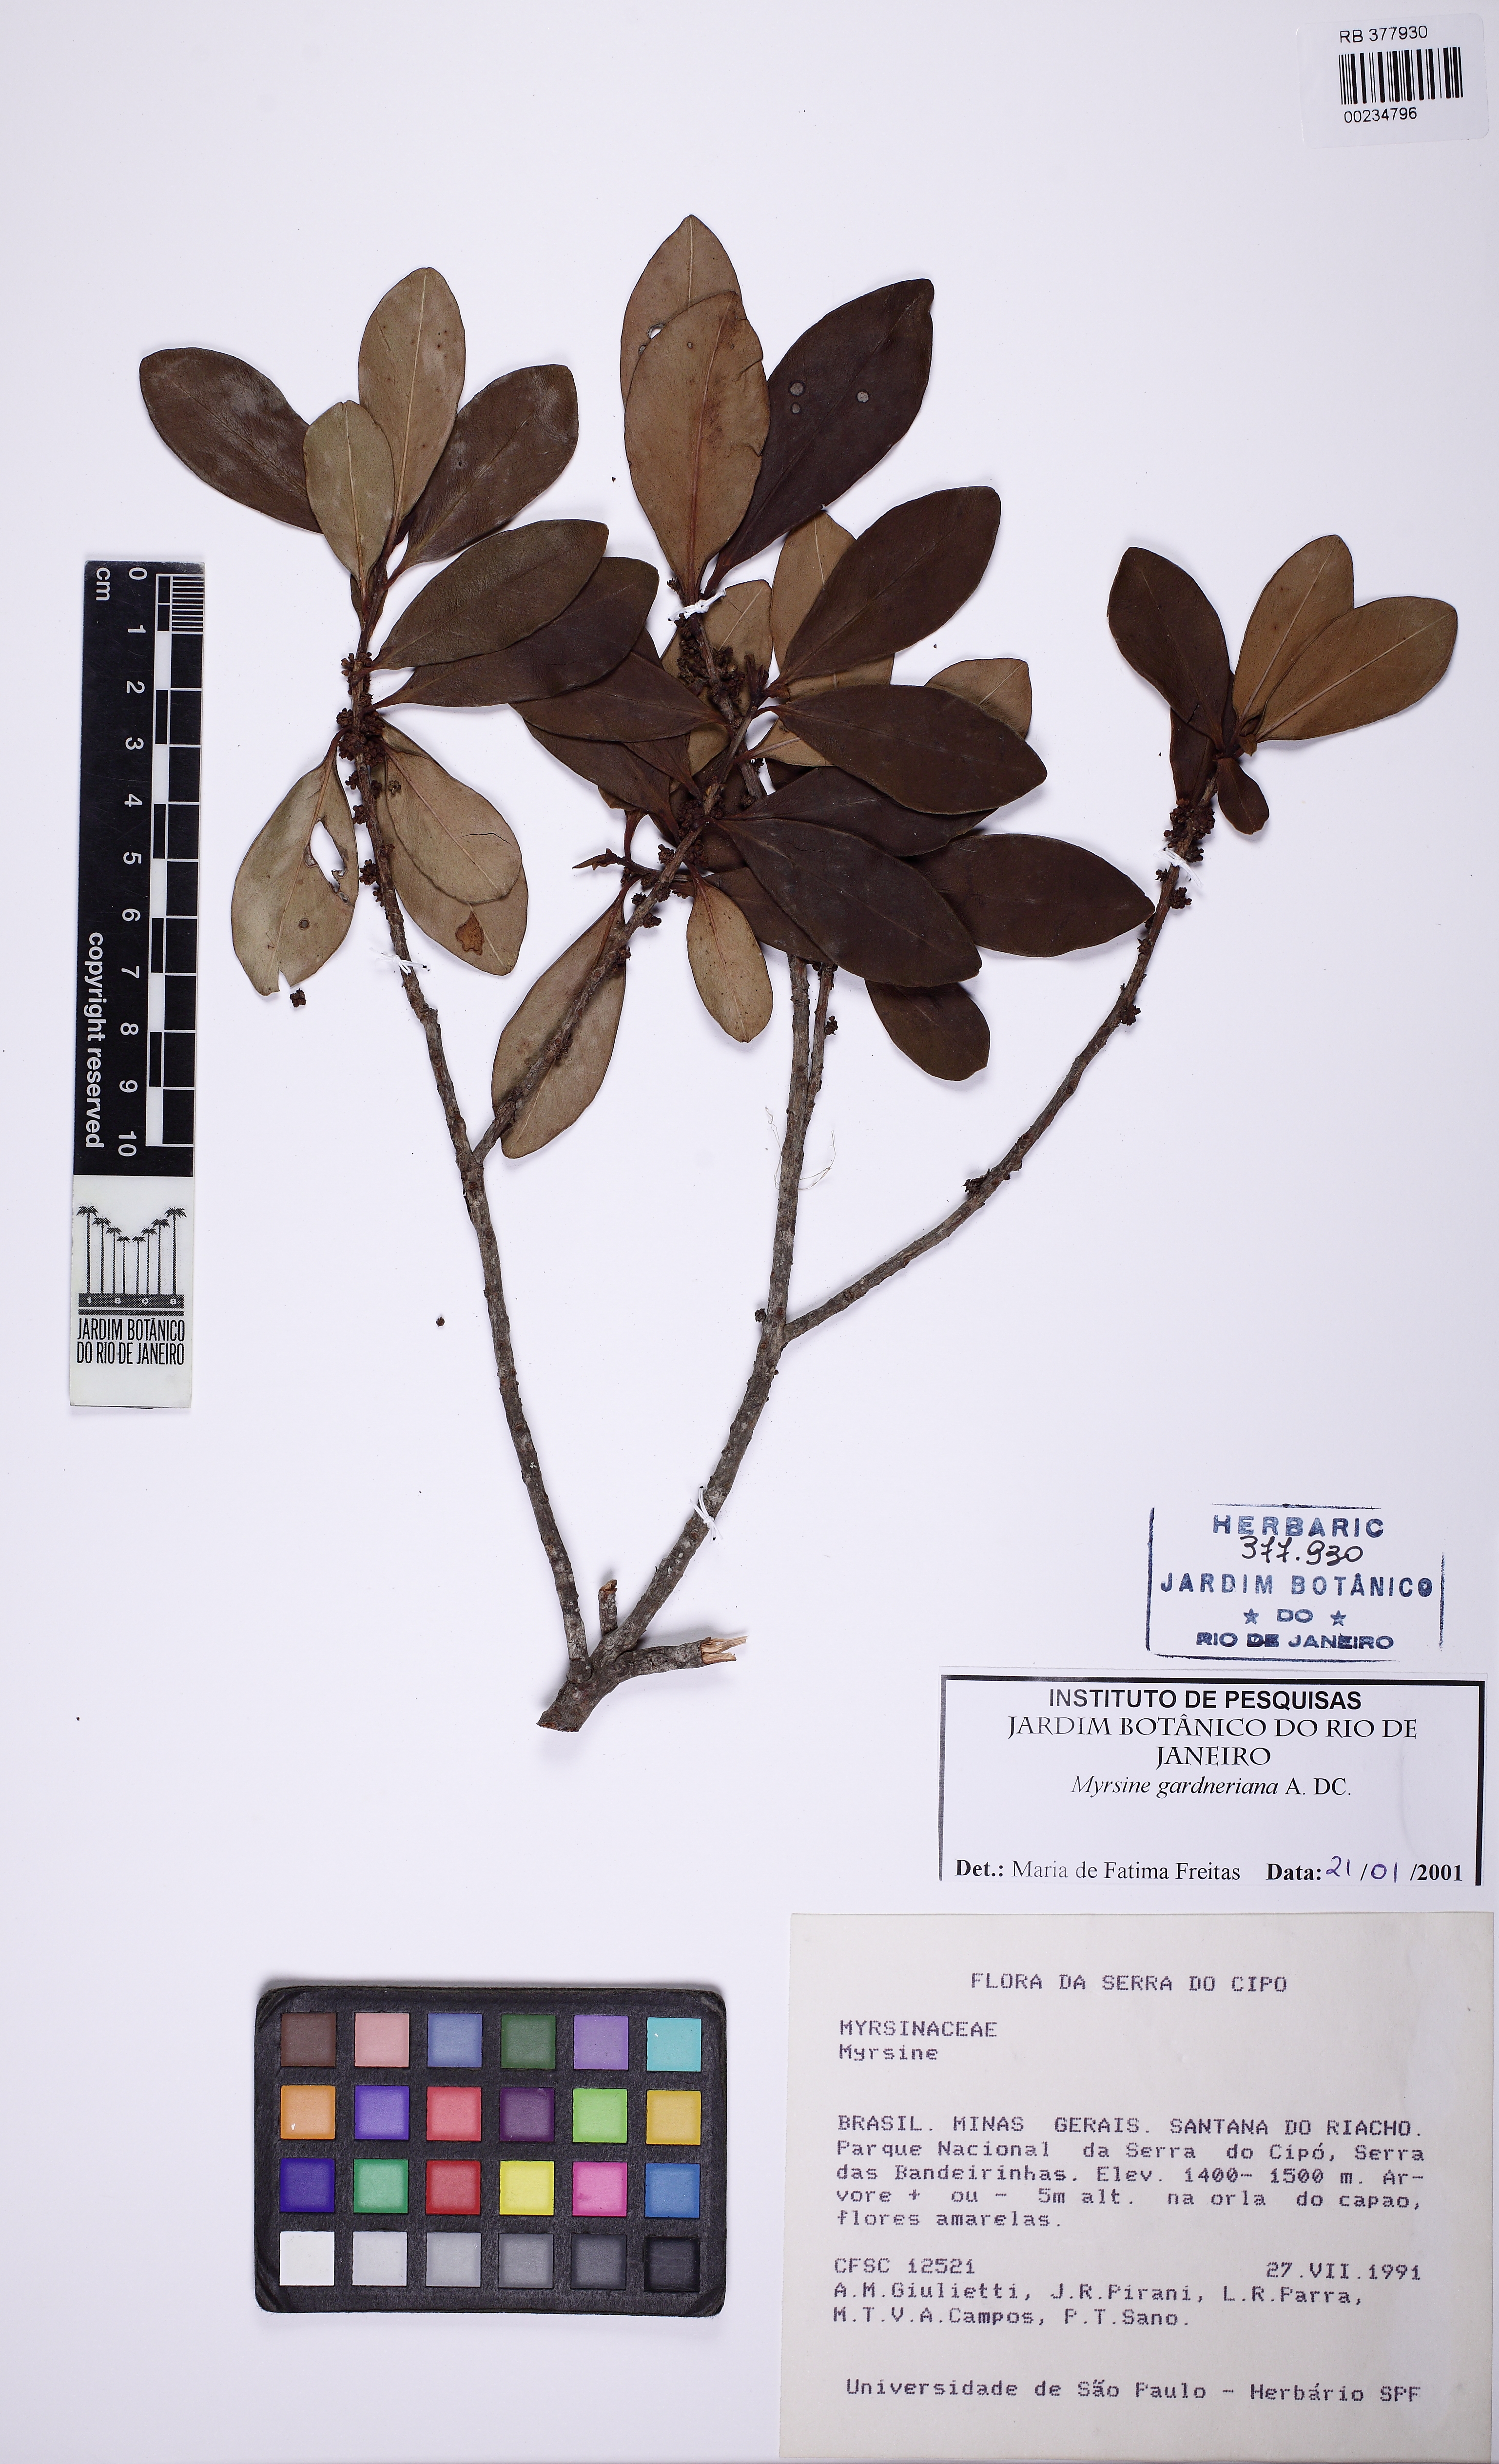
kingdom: Plantae
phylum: Tracheophyta
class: Magnoliopsida
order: Ericales
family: Primulaceae
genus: Myrsine
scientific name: Myrsine gardneriana
